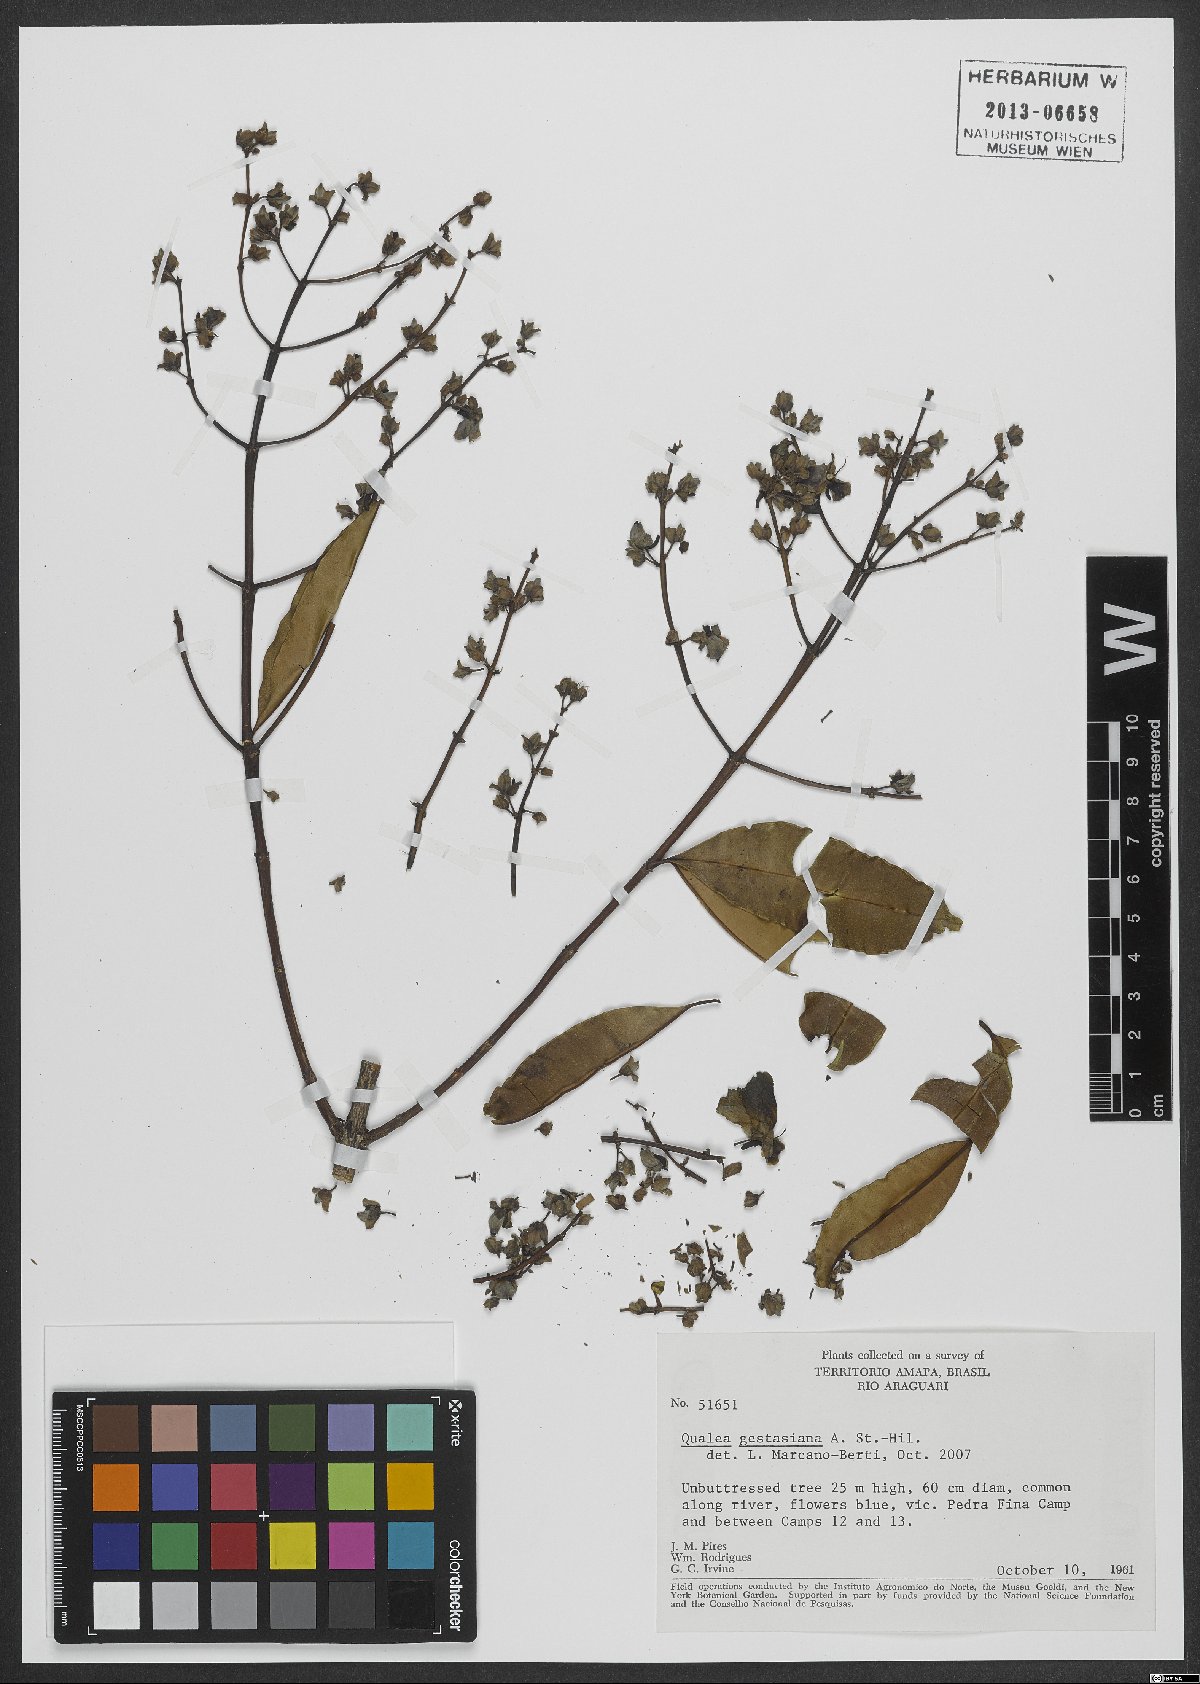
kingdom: Plantae
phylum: Tracheophyta
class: Magnoliopsida
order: Myrtales
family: Vochysiaceae
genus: Qualea
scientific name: Qualea gestasiana
